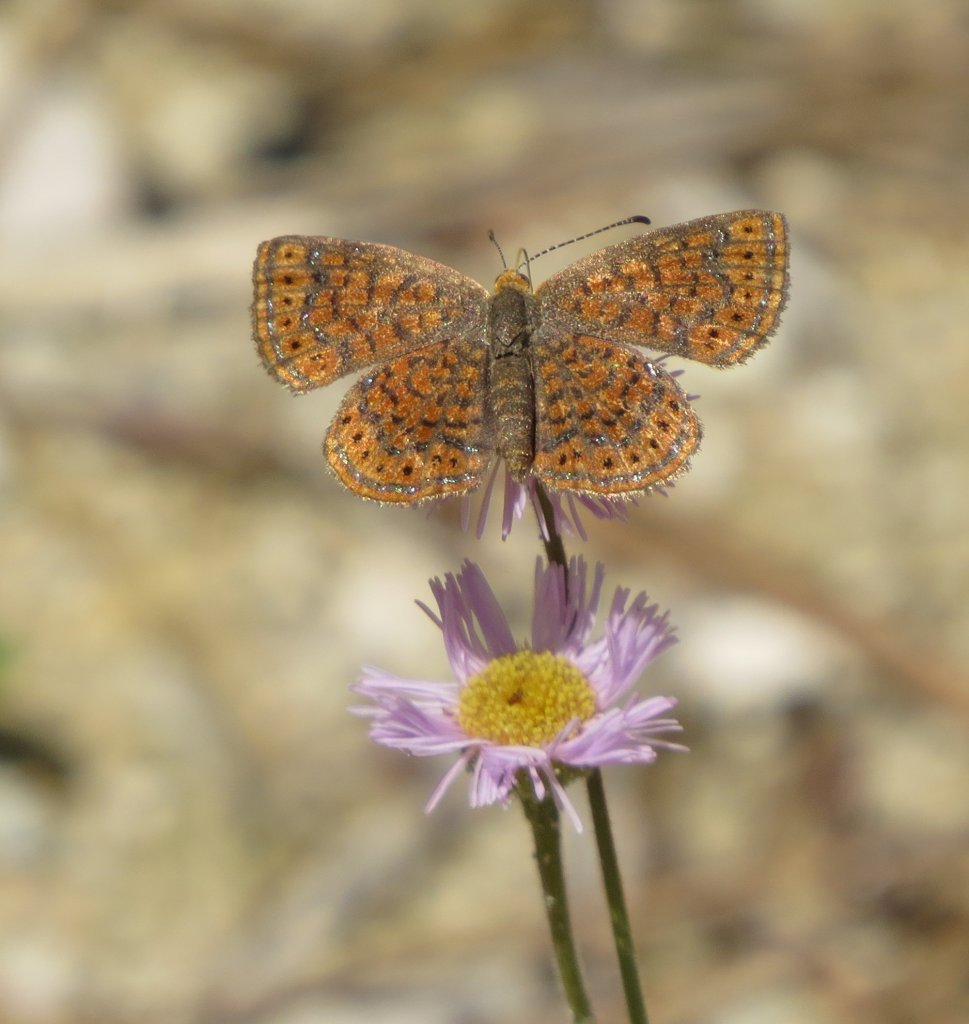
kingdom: Animalia
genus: Calephelis
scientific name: Calephelis virginiensis
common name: Little Metalmark
